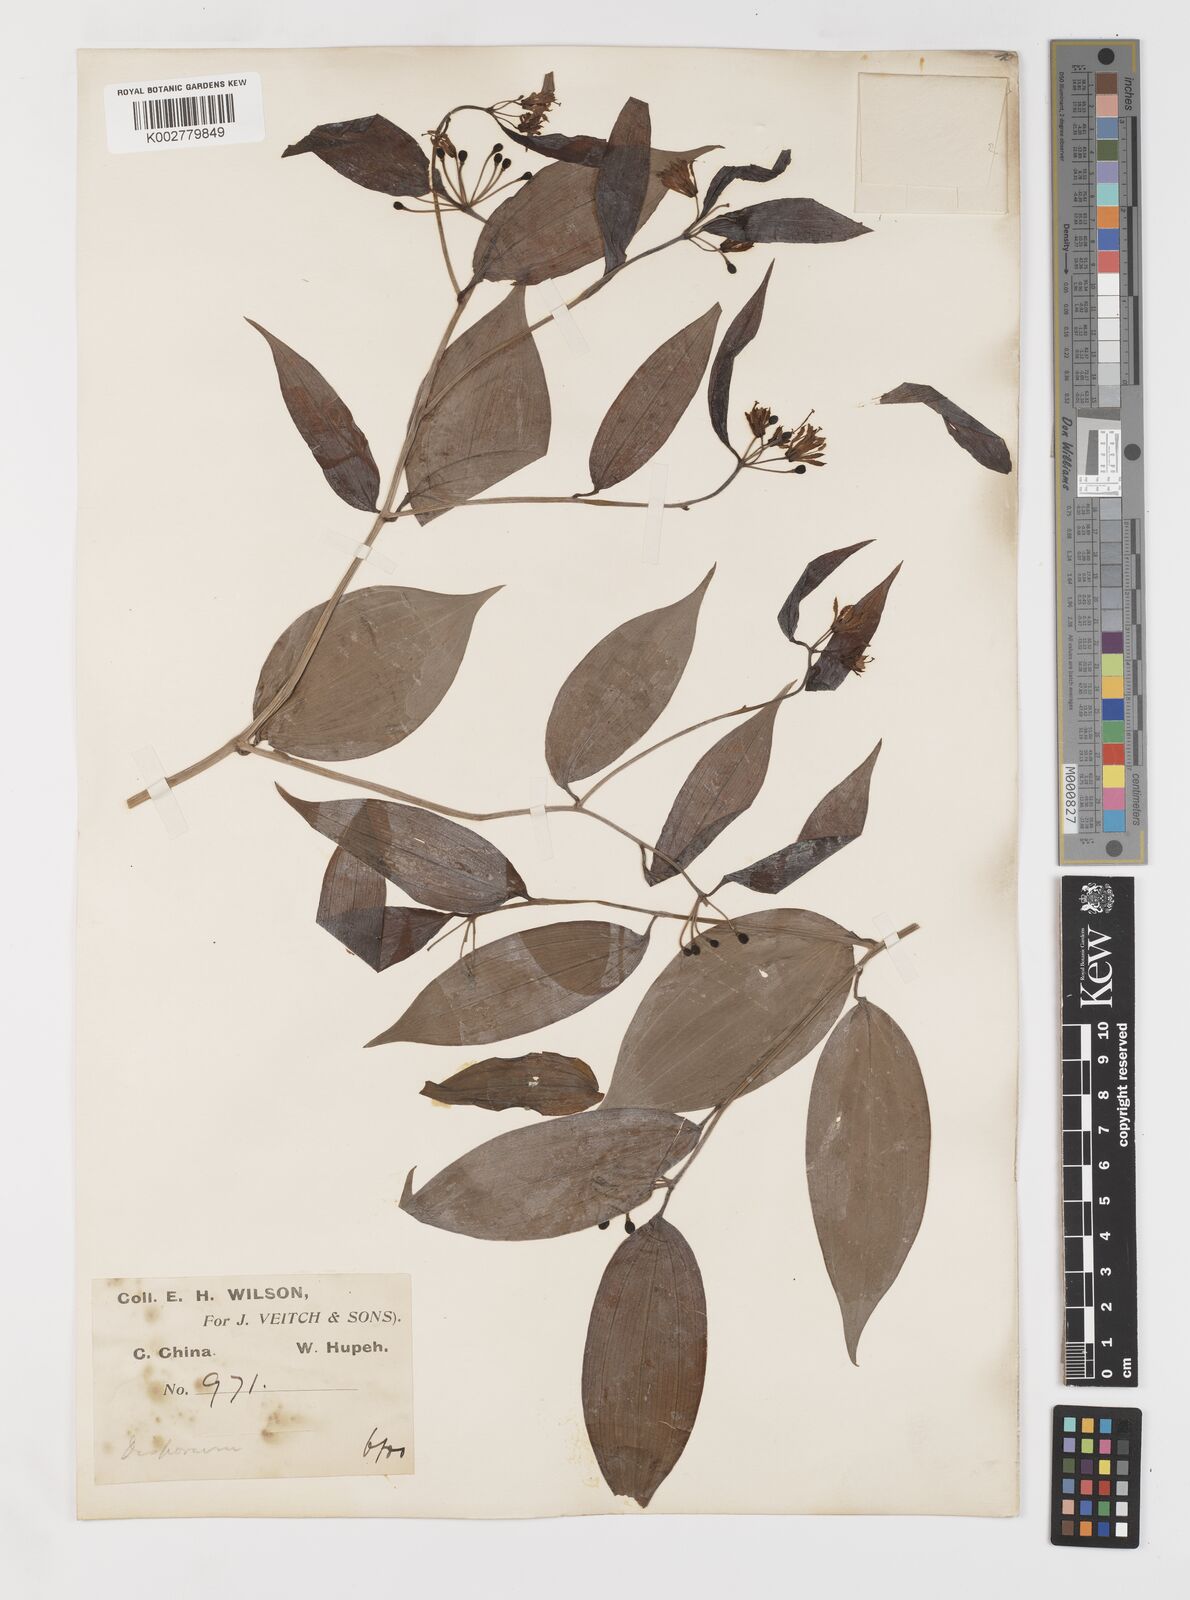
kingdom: Plantae
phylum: Tracheophyta
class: Liliopsida
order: Liliales
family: Colchicaceae
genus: Disporum
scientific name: Disporum sessile
